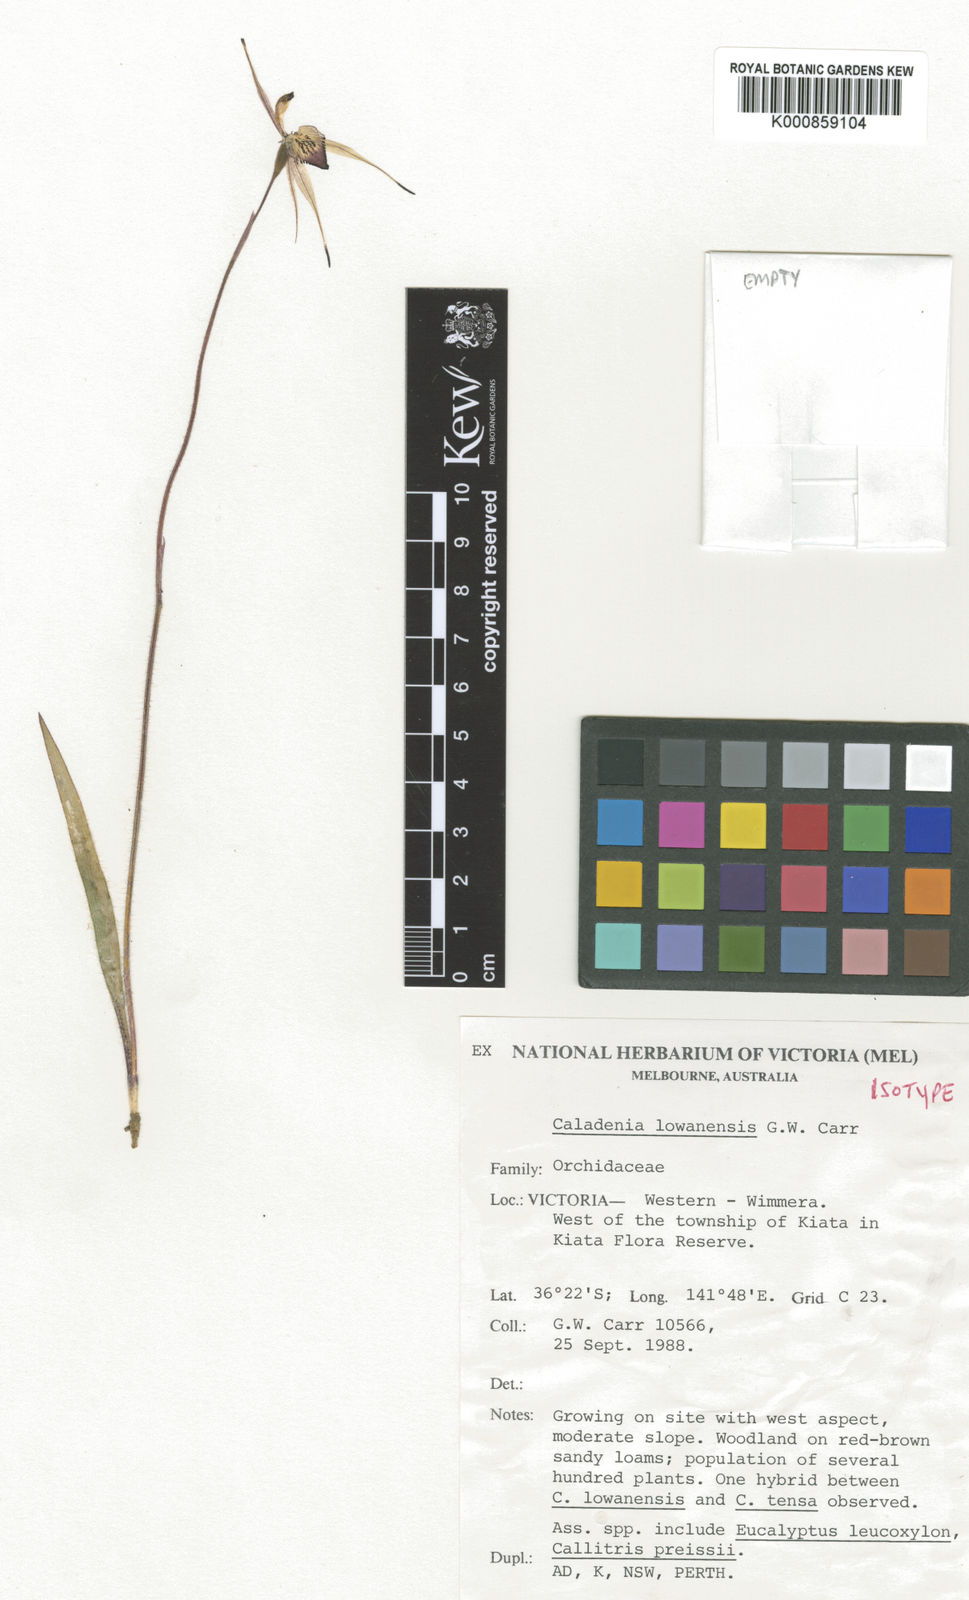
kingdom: Plantae
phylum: Tracheophyta
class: Liliopsida
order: Asparagales
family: Orchidaceae
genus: Caladenia
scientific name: Caladenia lowanensis
